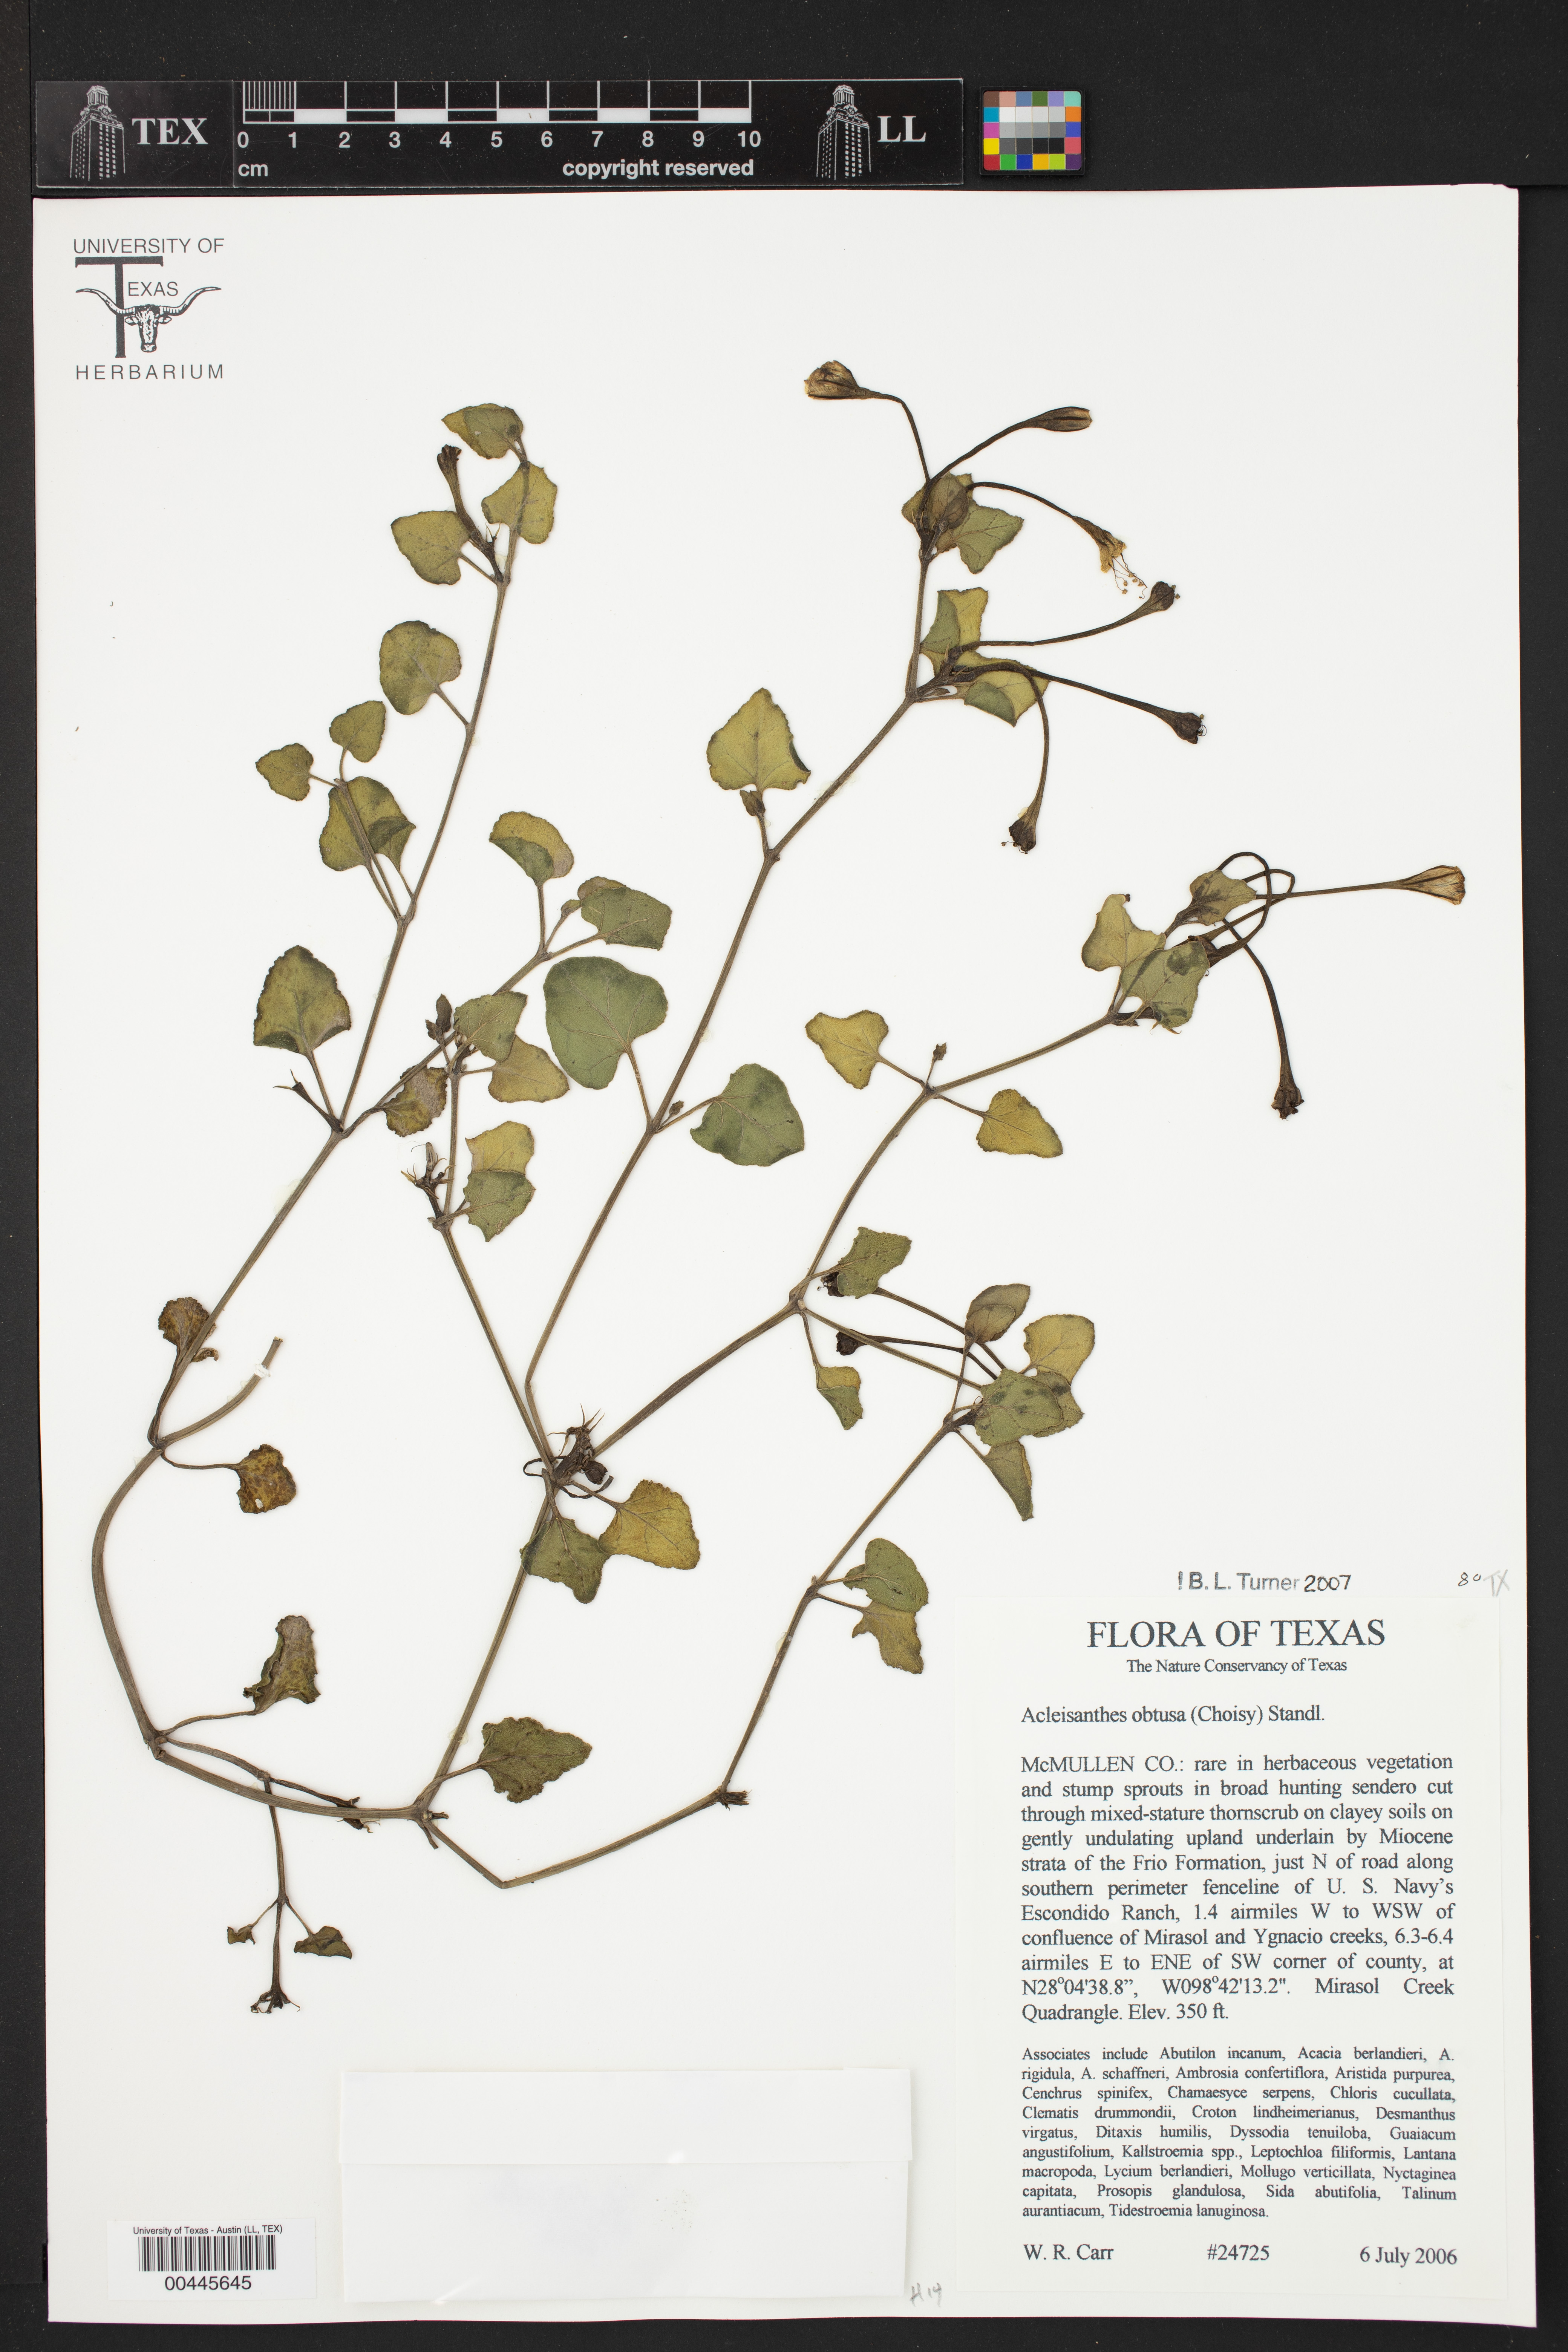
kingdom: Plantae
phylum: Tracheophyta
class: Magnoliopsida
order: Caryophyllales
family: Nyctaginaceae
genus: Acleisanthes
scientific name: Acleisanthes obtusa
